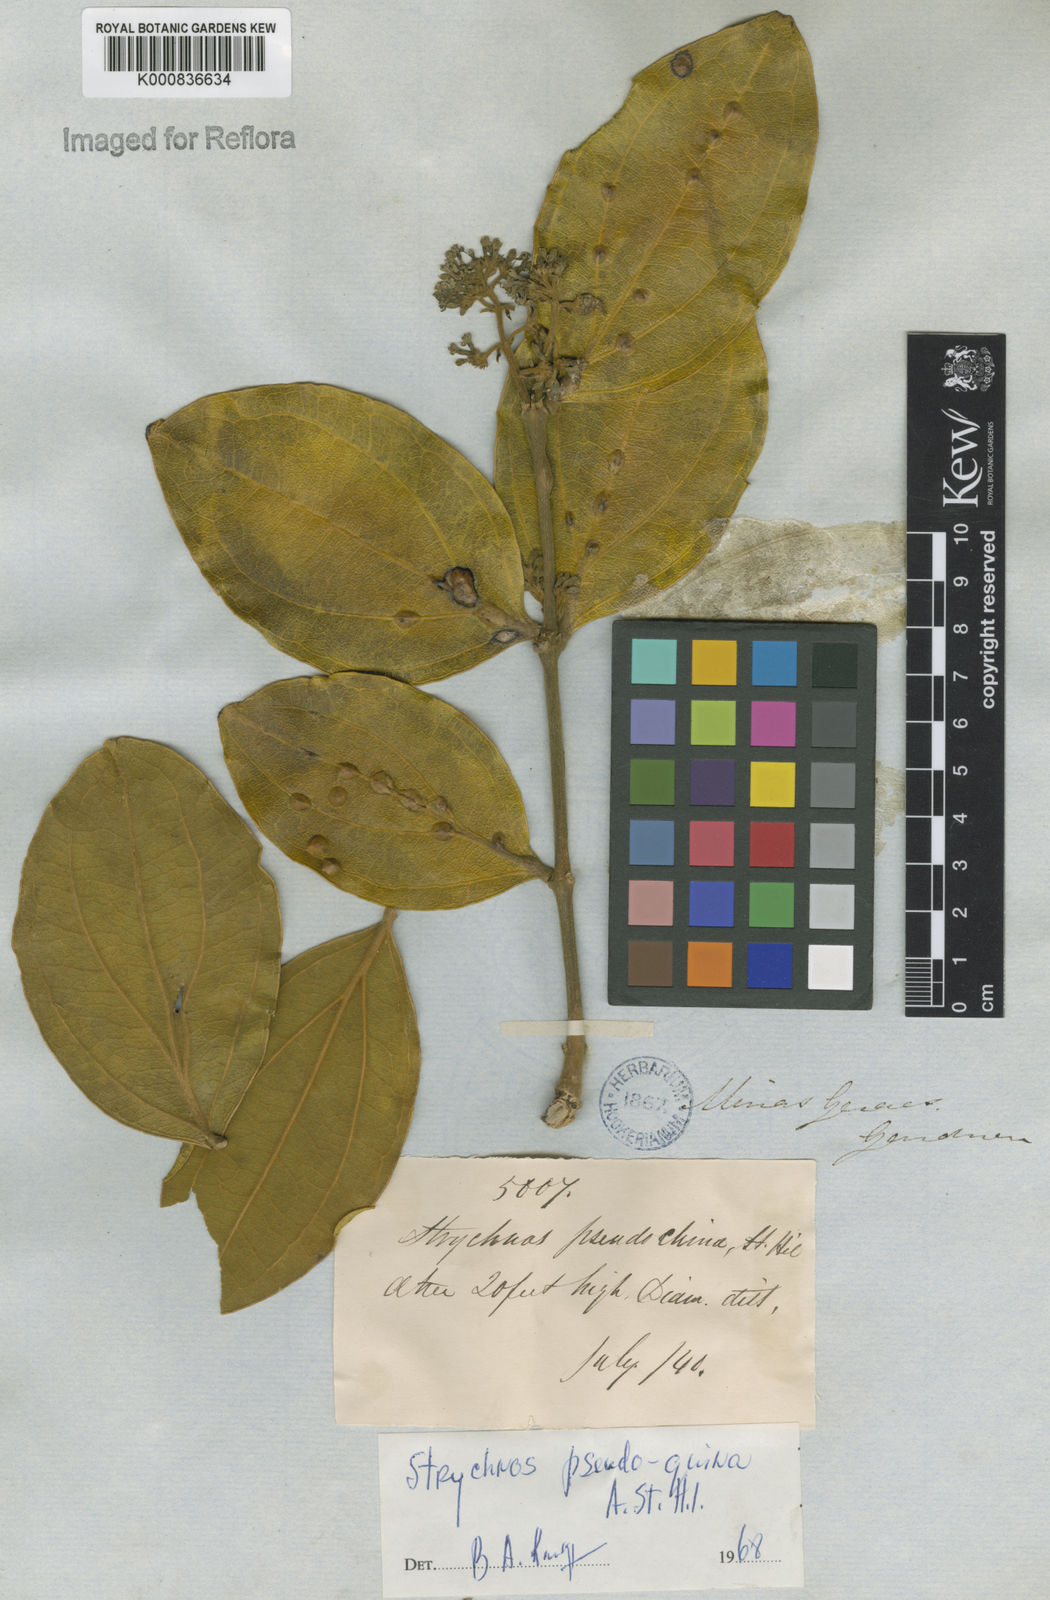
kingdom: Plantae
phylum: Tracheophyta
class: Magnoliopsida
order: Gentianales
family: Loganiaceae
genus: Strychnos
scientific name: Strychnos pseudoquina
